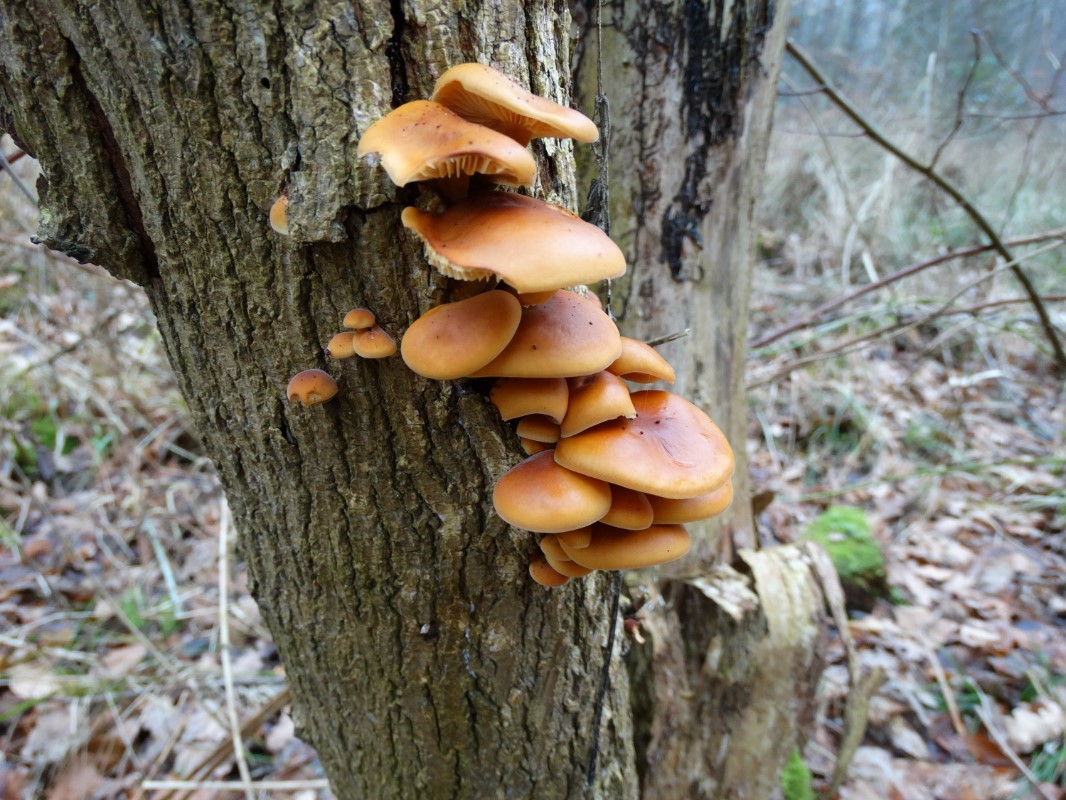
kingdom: Fungi
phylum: Basidiomycota
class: Agaricomycetes
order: Agaricales
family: Physalacriaceae
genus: Flammulina
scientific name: Flammulina velutipes
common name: gul fløjlsfod
